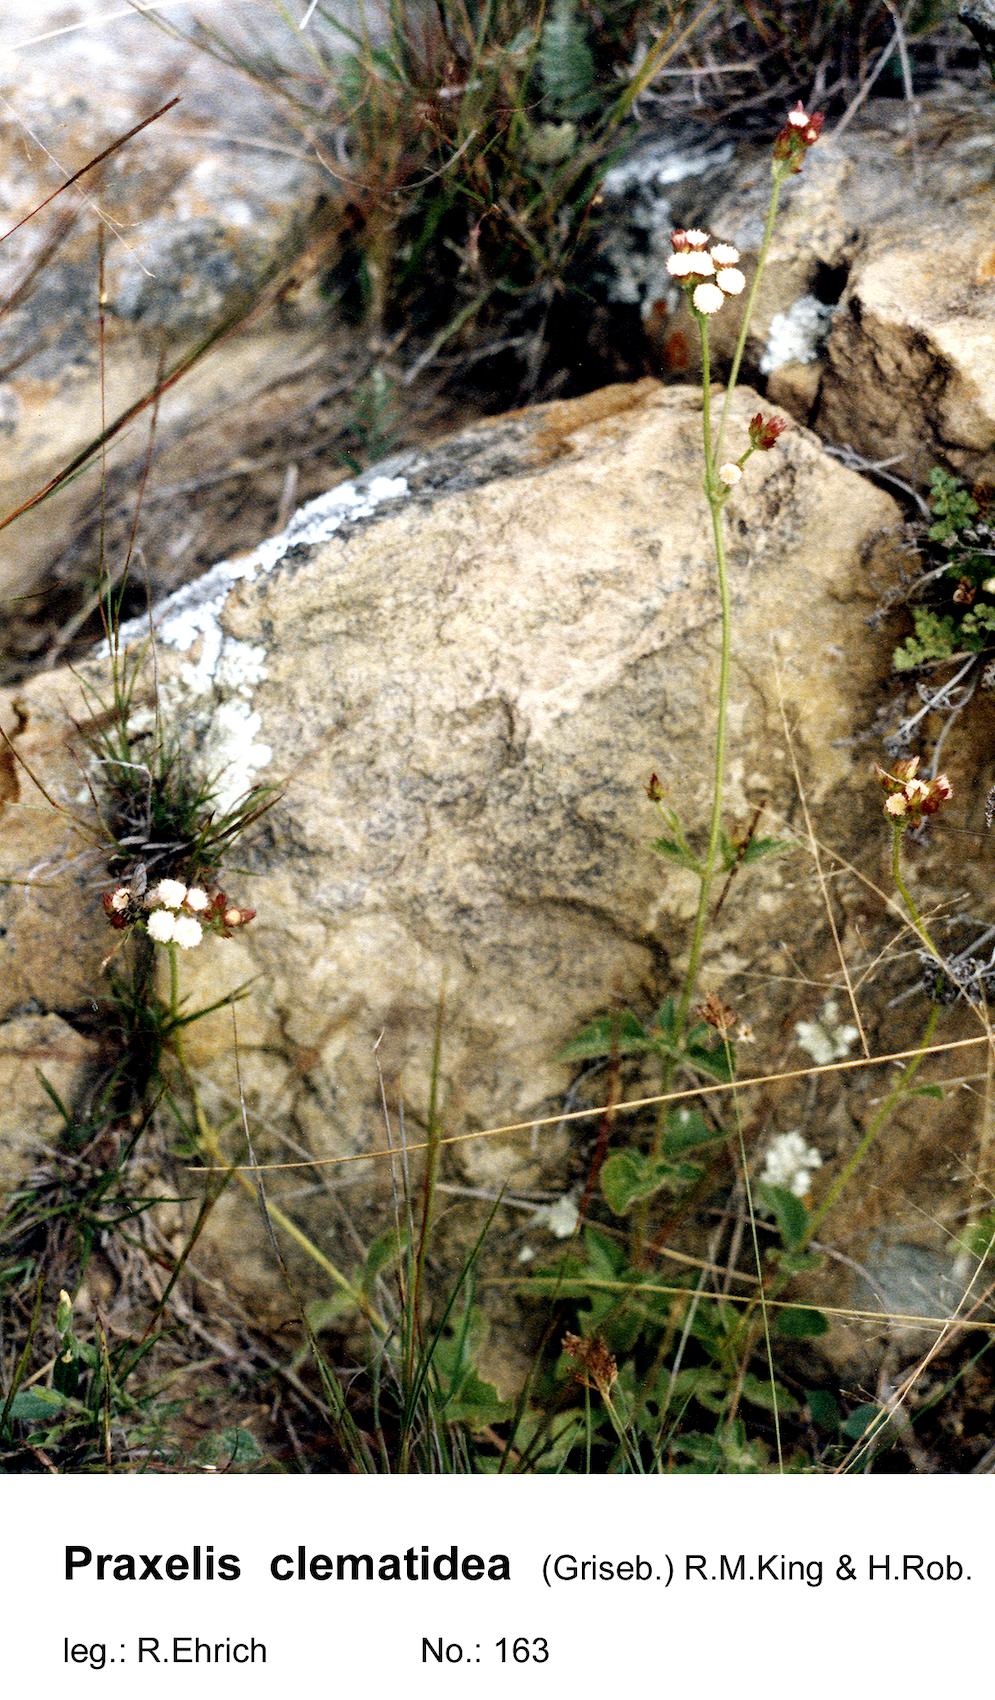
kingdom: Plantae
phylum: Tracheophyta
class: Magnoliopsida
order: Asterales
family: Asteraceae
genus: Praxelis
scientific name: Praxelis clematidea
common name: Praxelis
